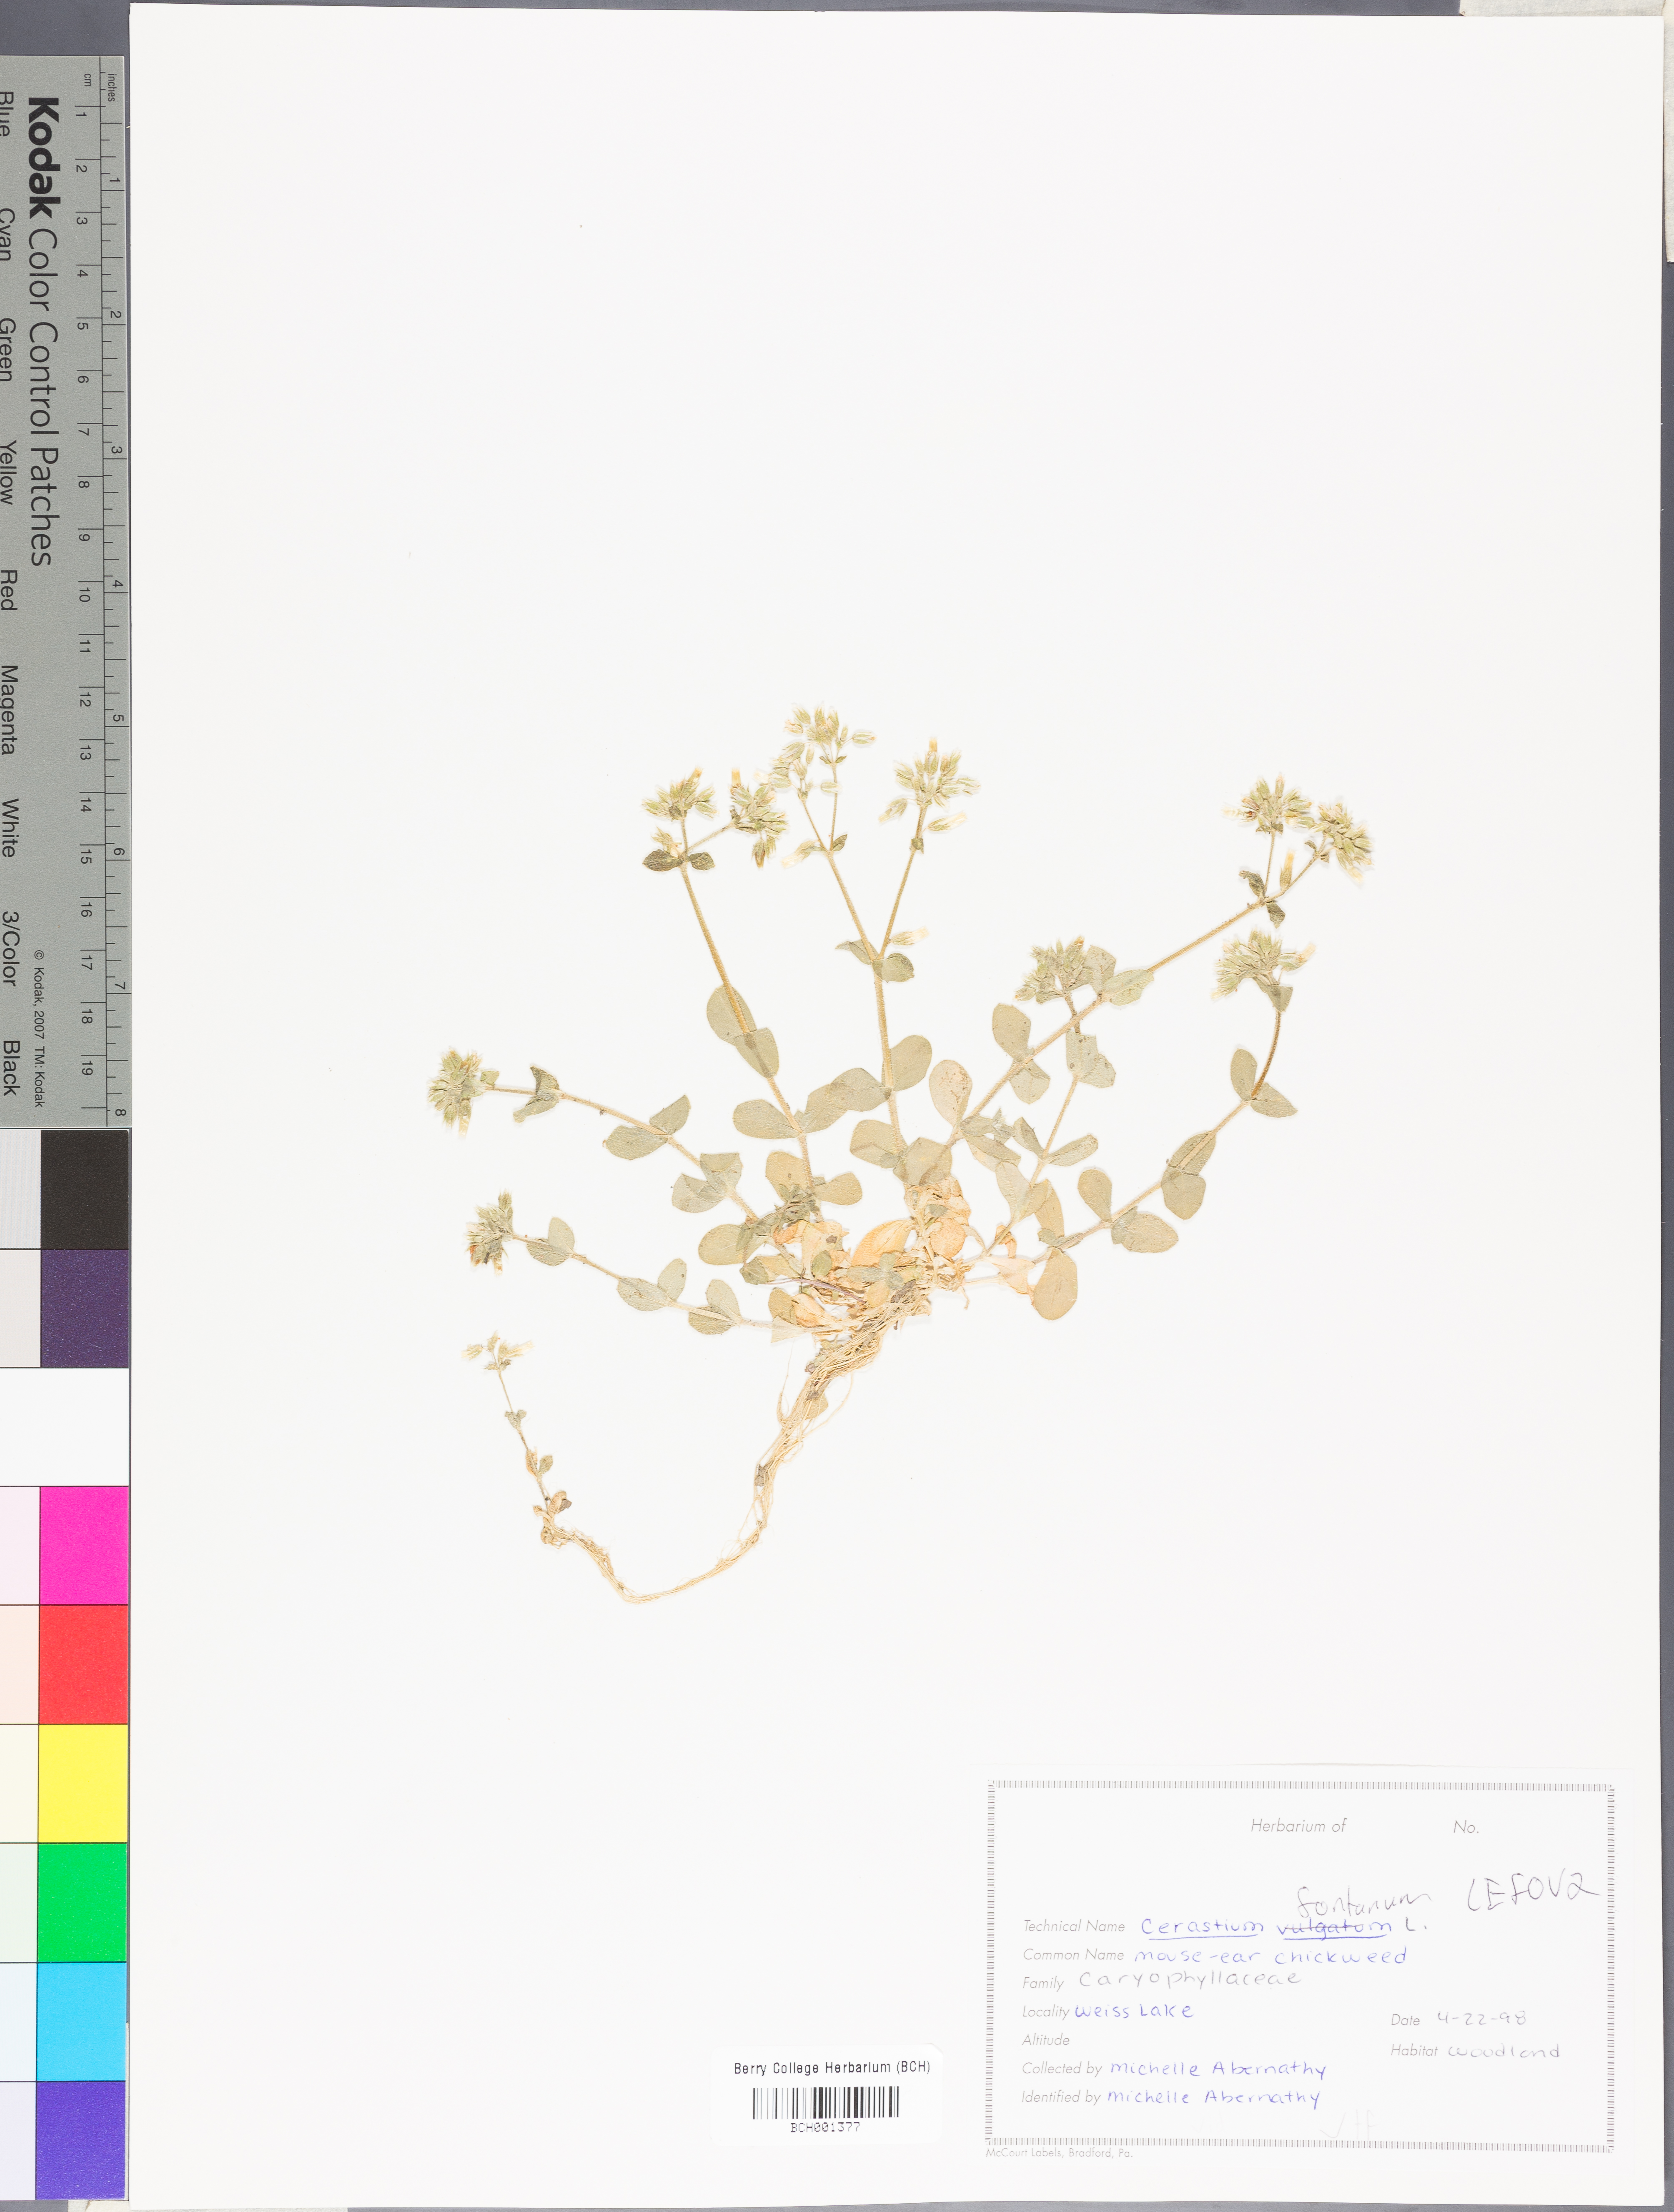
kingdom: Plantae
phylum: Tracheophyta
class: Magnoliopsida
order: Caryophyllales
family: Caryophyllaceae
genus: Cerastium
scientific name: Cerastium holosteoides
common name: Big chickweed
